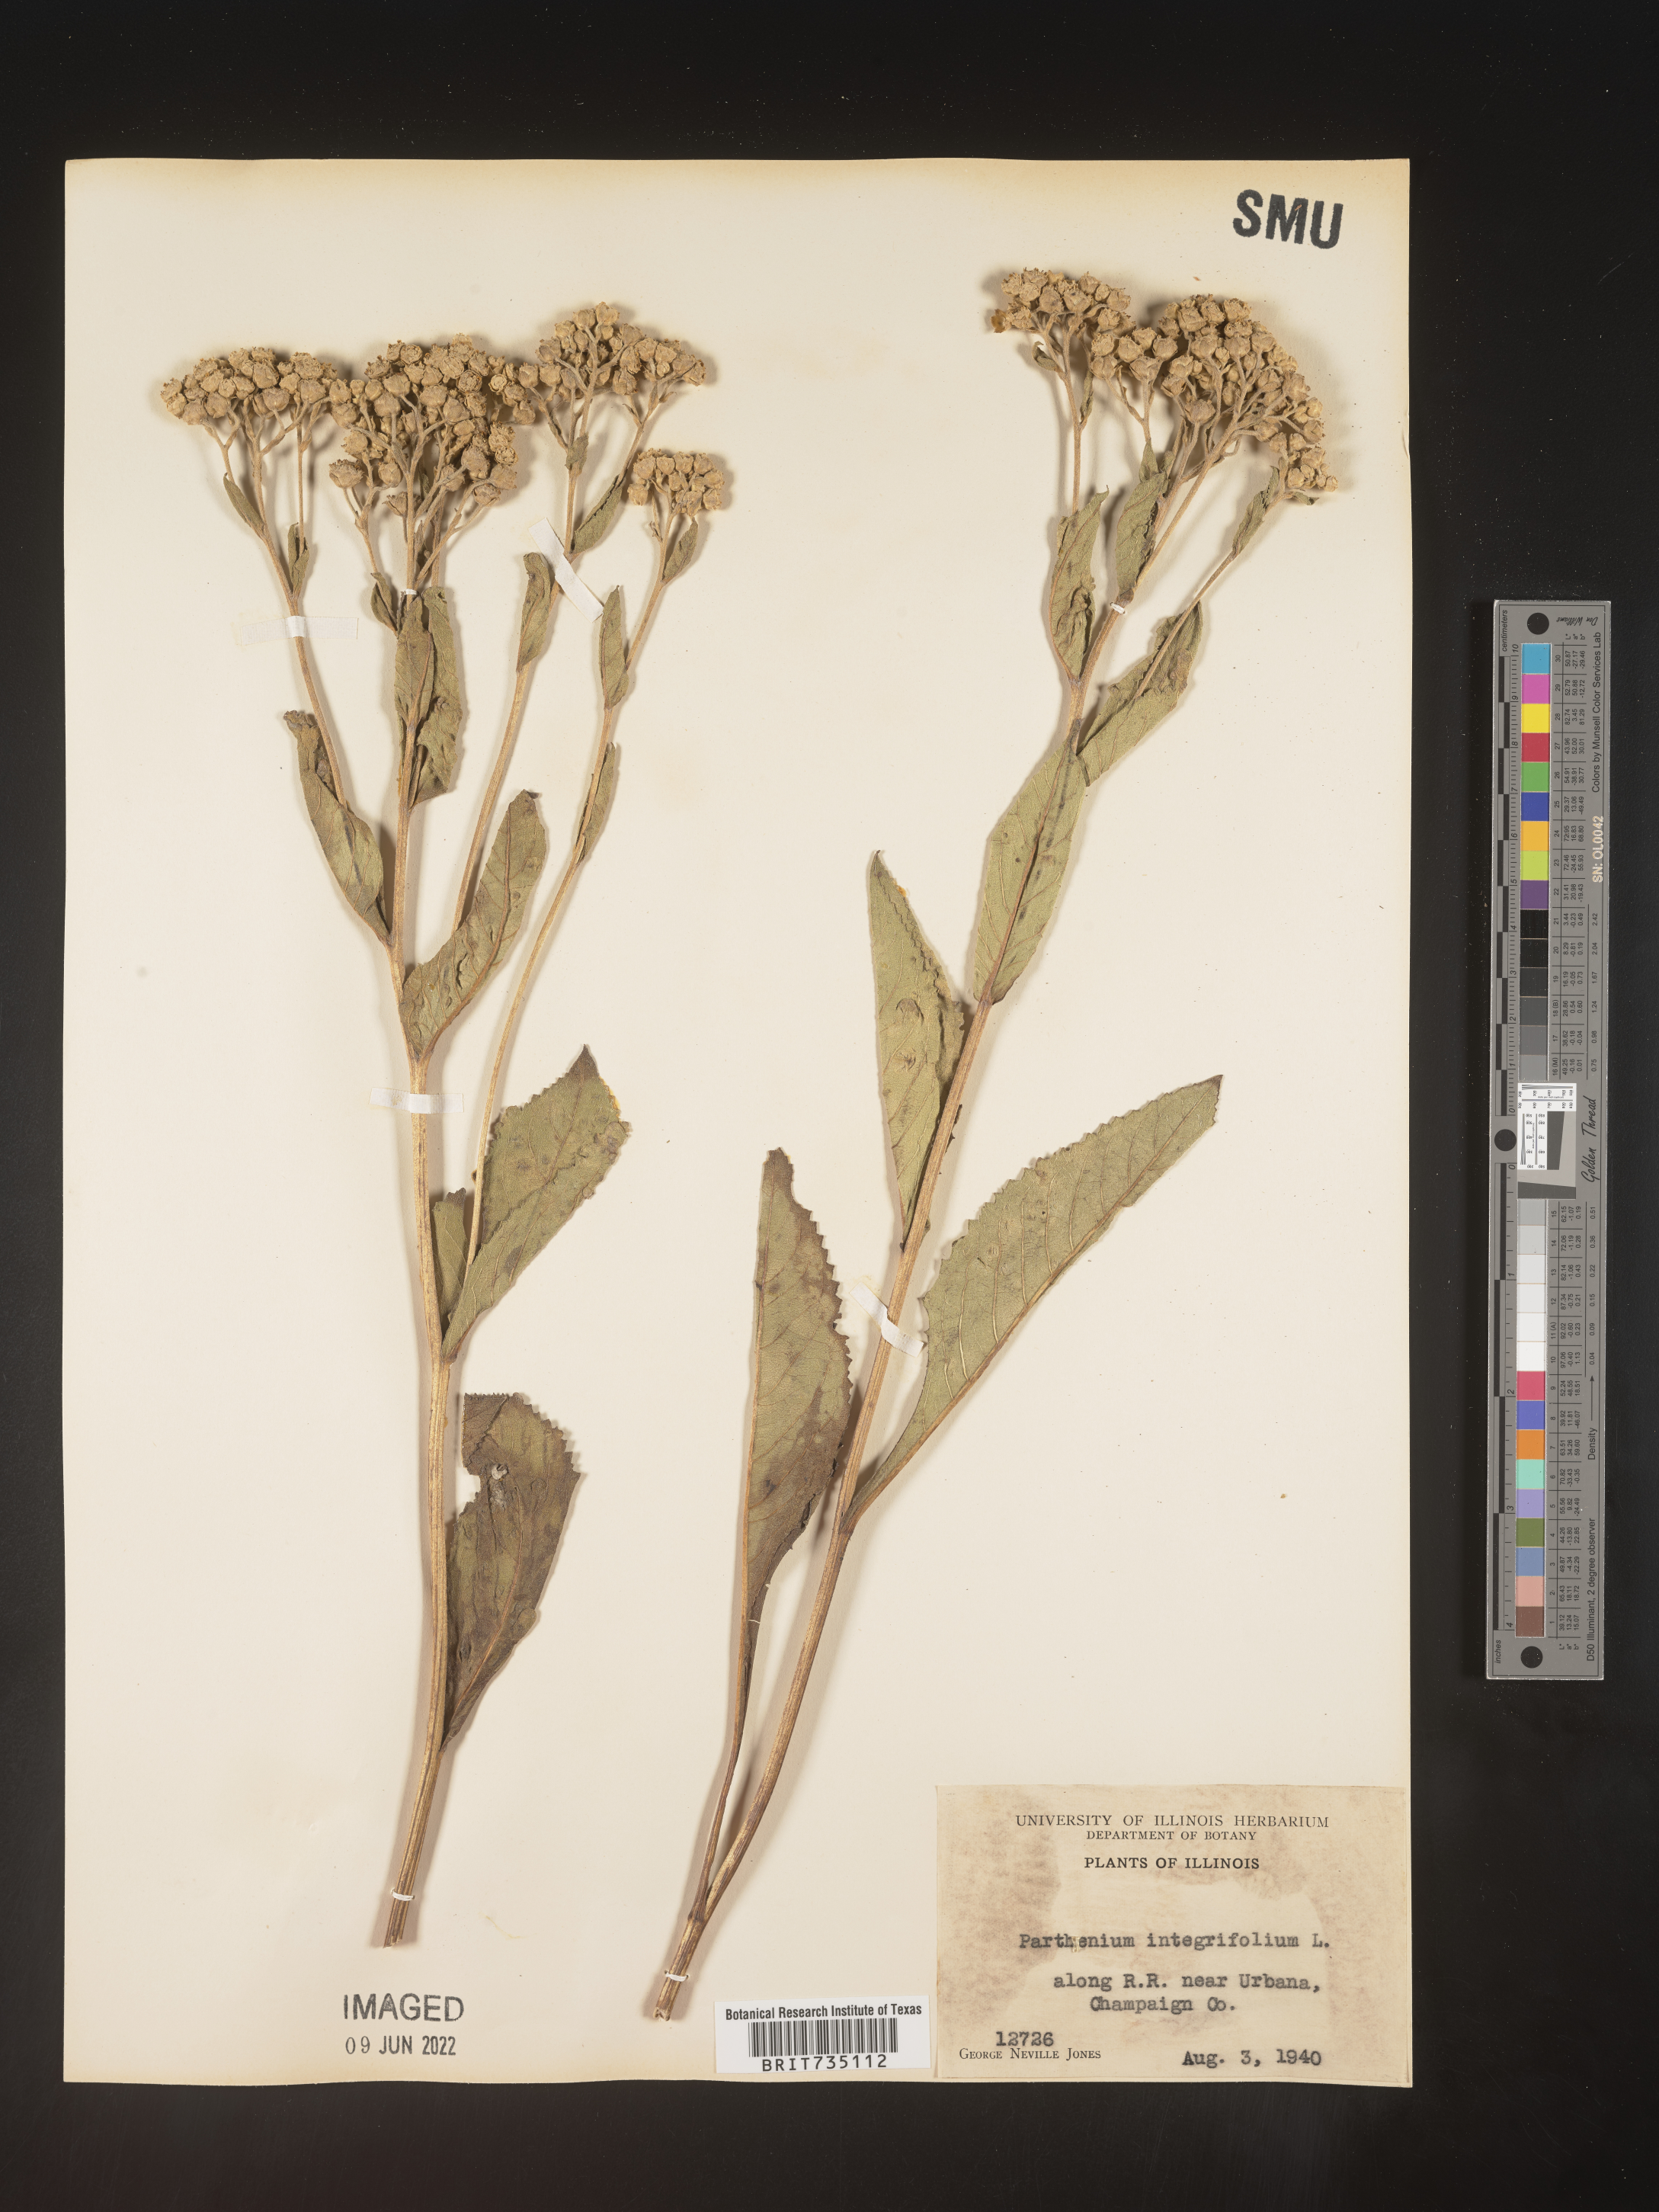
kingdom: Plantae
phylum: Tracheophyta
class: Magnoliopsida
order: Asterales
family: Asteraceae
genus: Parthenium
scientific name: Parthenium integrifolium
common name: American feverfew
